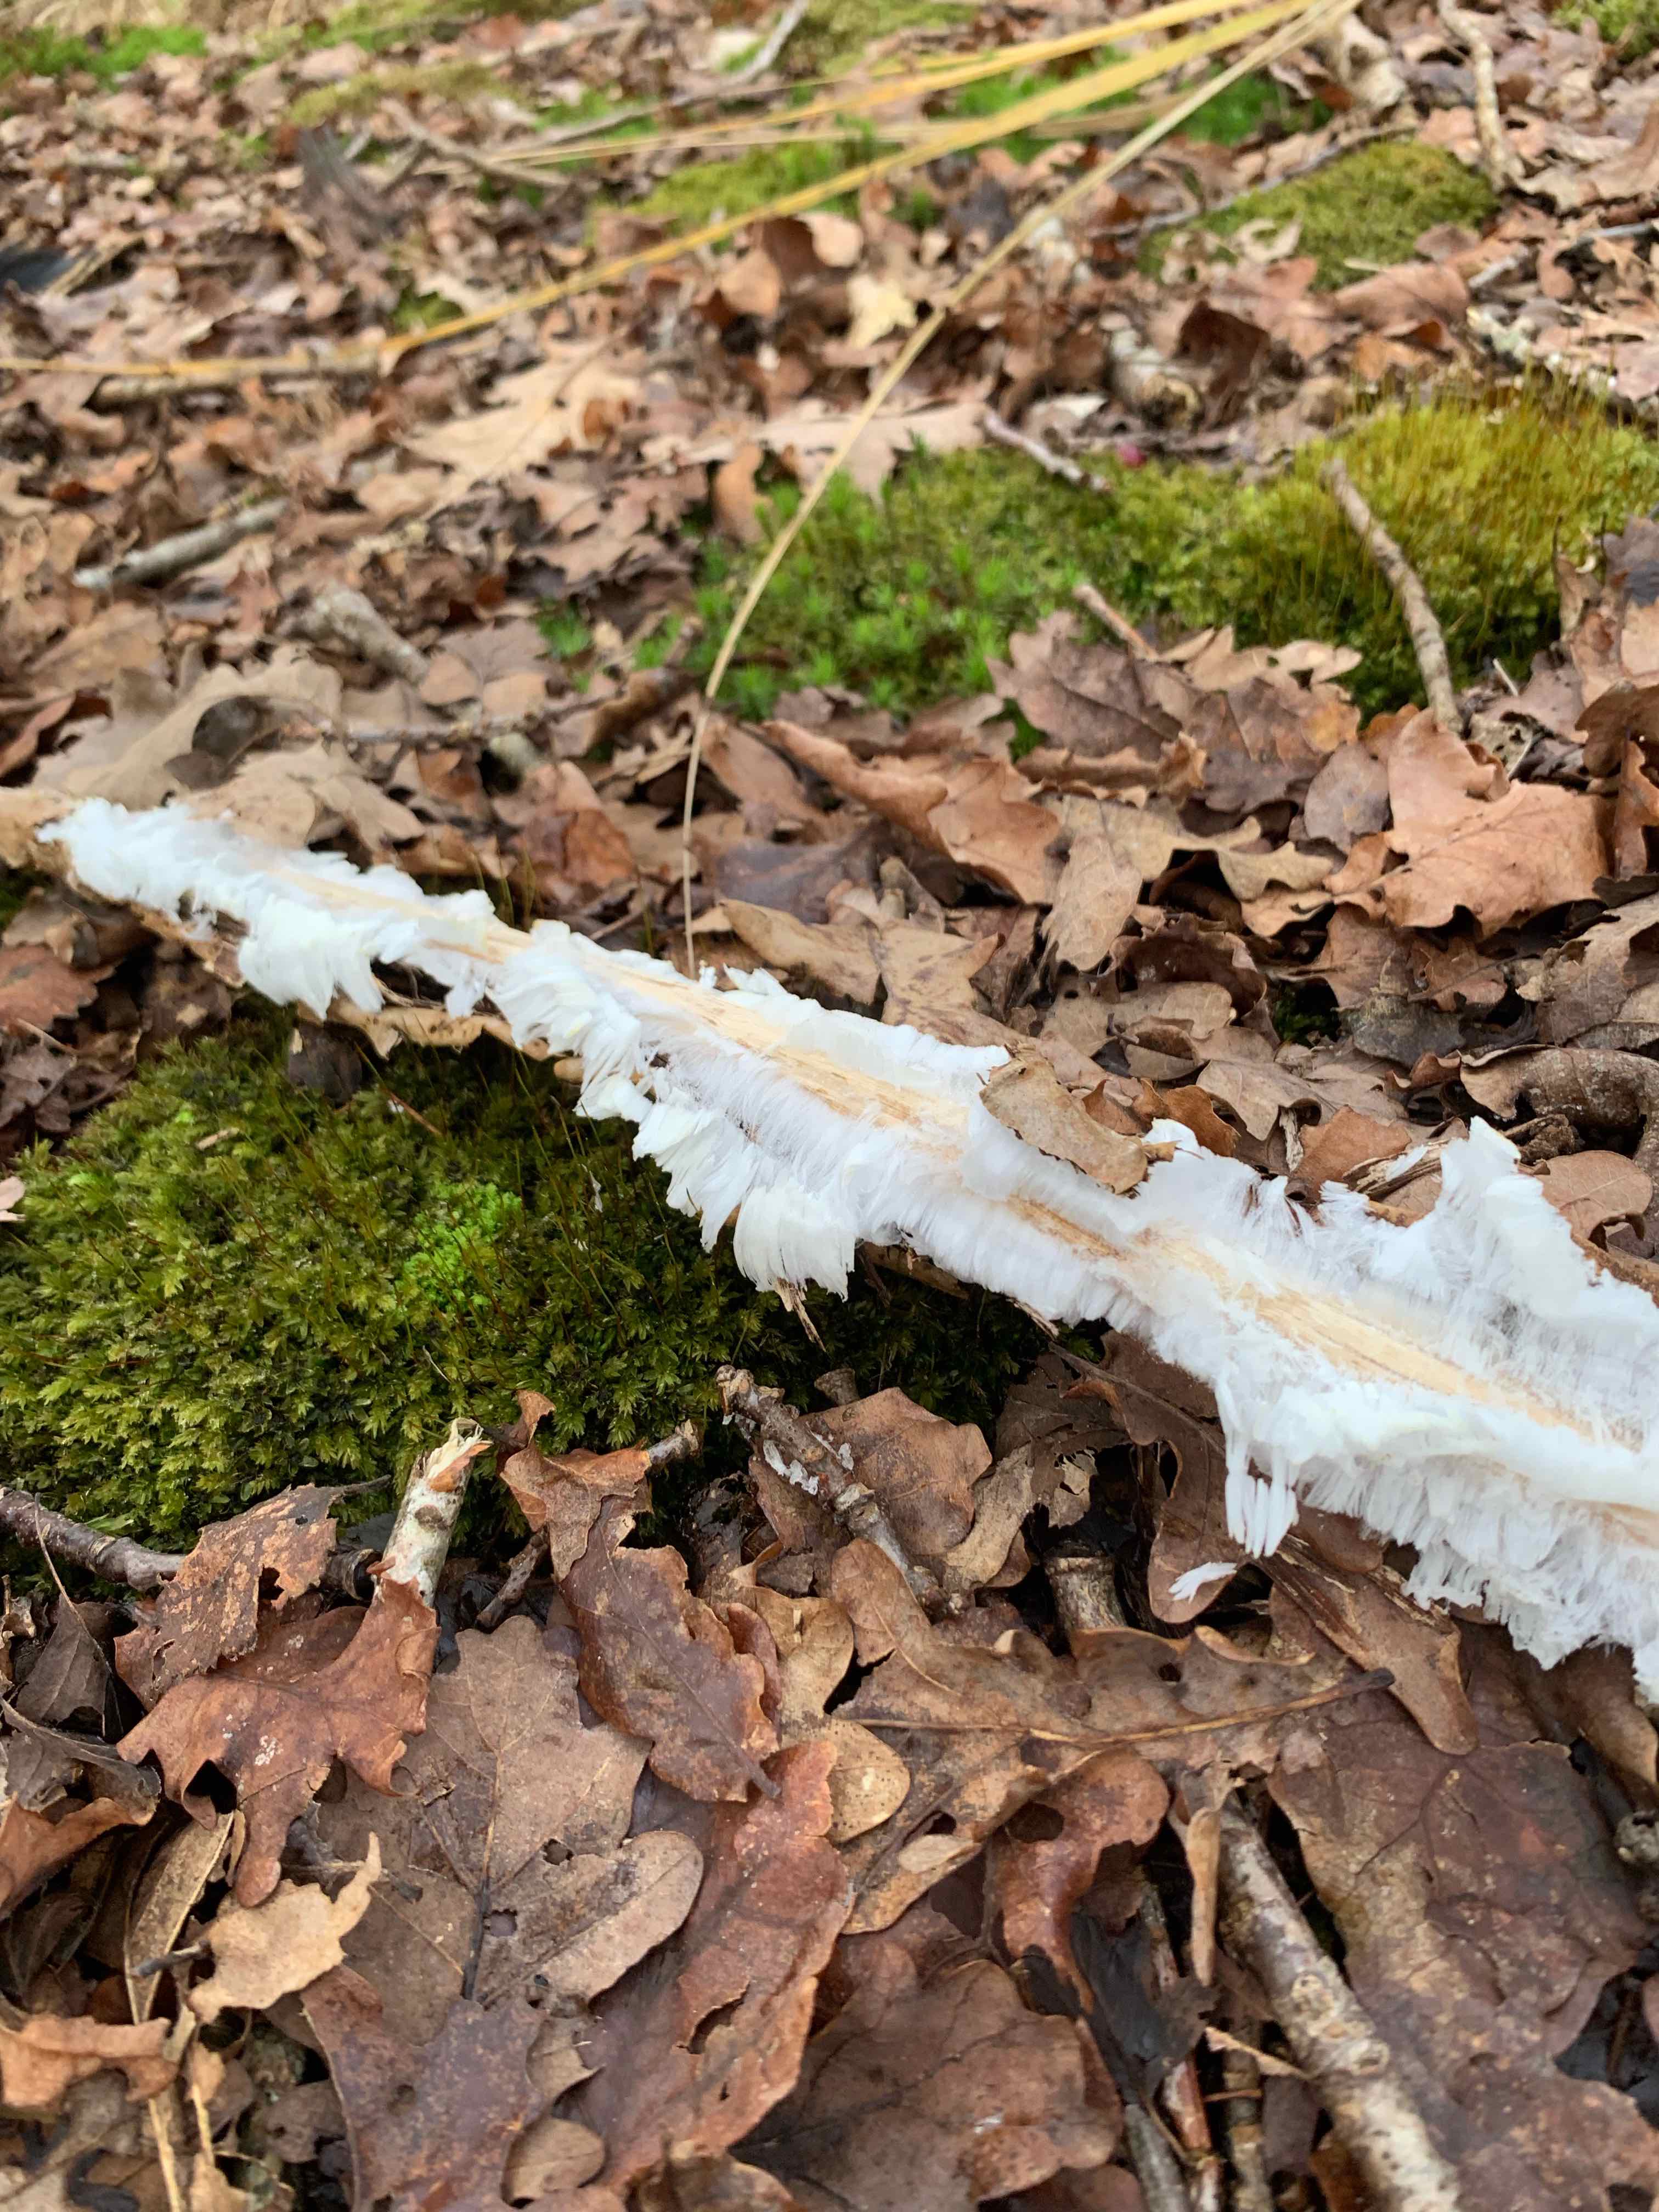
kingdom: Fungi
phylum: Basidiomycota
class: Tremellomycetes
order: Tremellales
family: Exidiaceae
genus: Exidiopsis
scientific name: Exidiopsis effusa
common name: smuk bævrehinde
